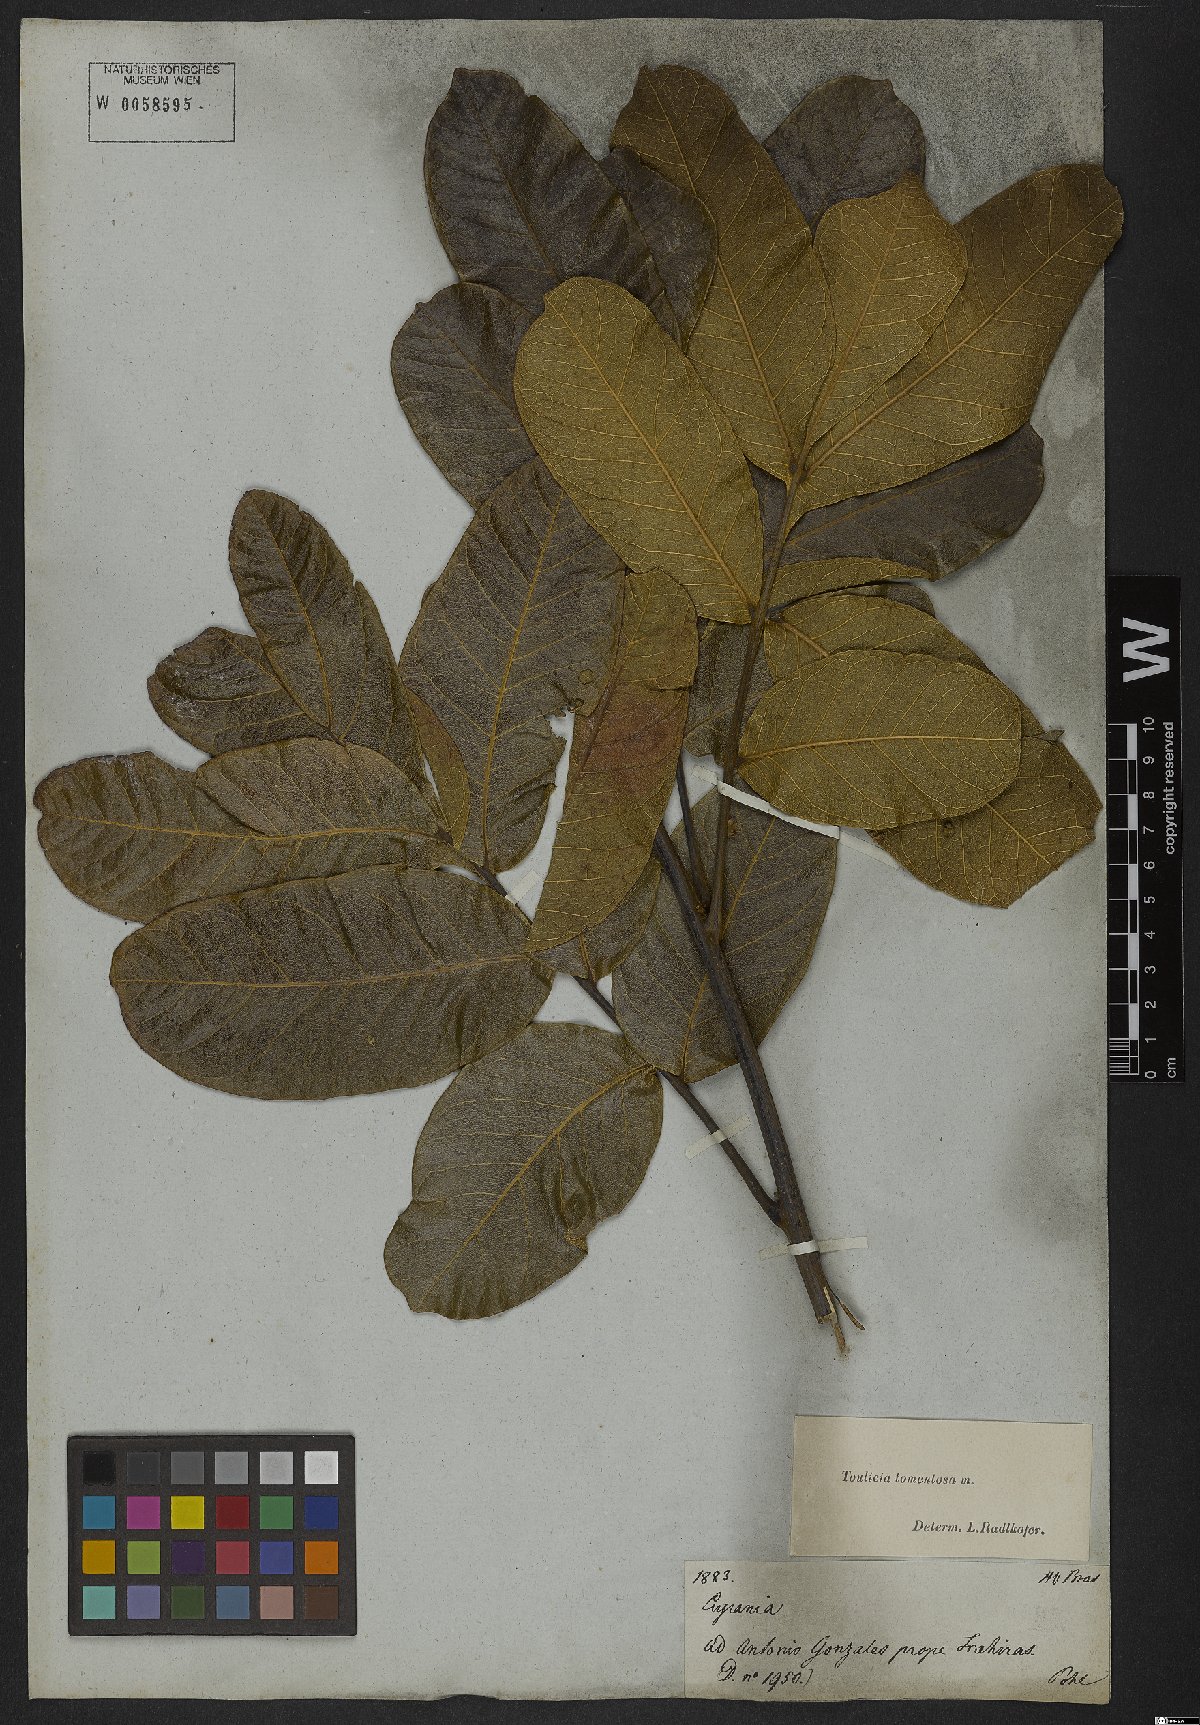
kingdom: Plantae
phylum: Tracheophyta
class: Magnoliopsida
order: Sapindales
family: Sapindaceae
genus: Toulicia
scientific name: Toulicia tomentosa
